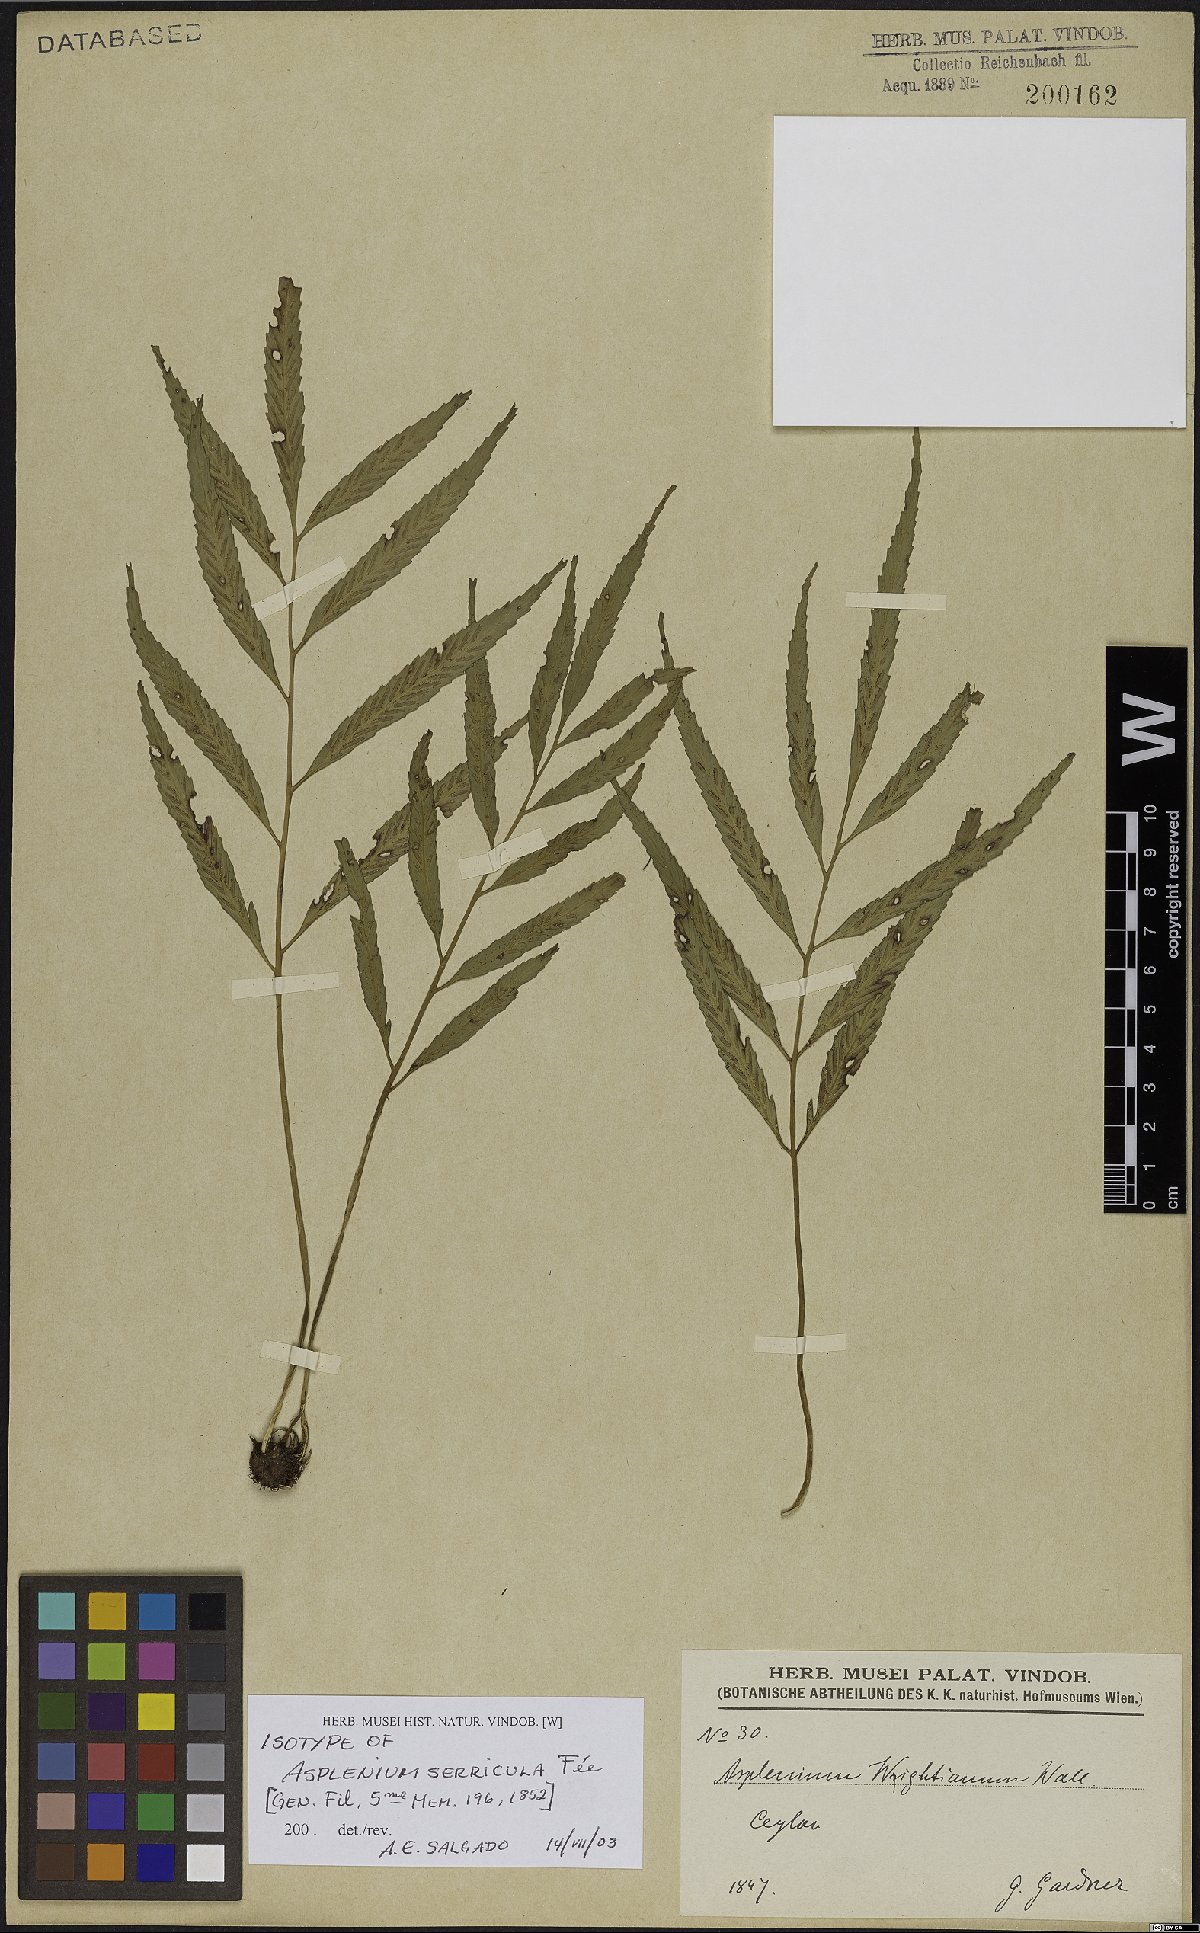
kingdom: Plantae
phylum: Tracheophyta
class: Polypodiopsida
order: Polypodiales
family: Aspleniaceae
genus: Asplenium
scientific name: Asplenium serricula
